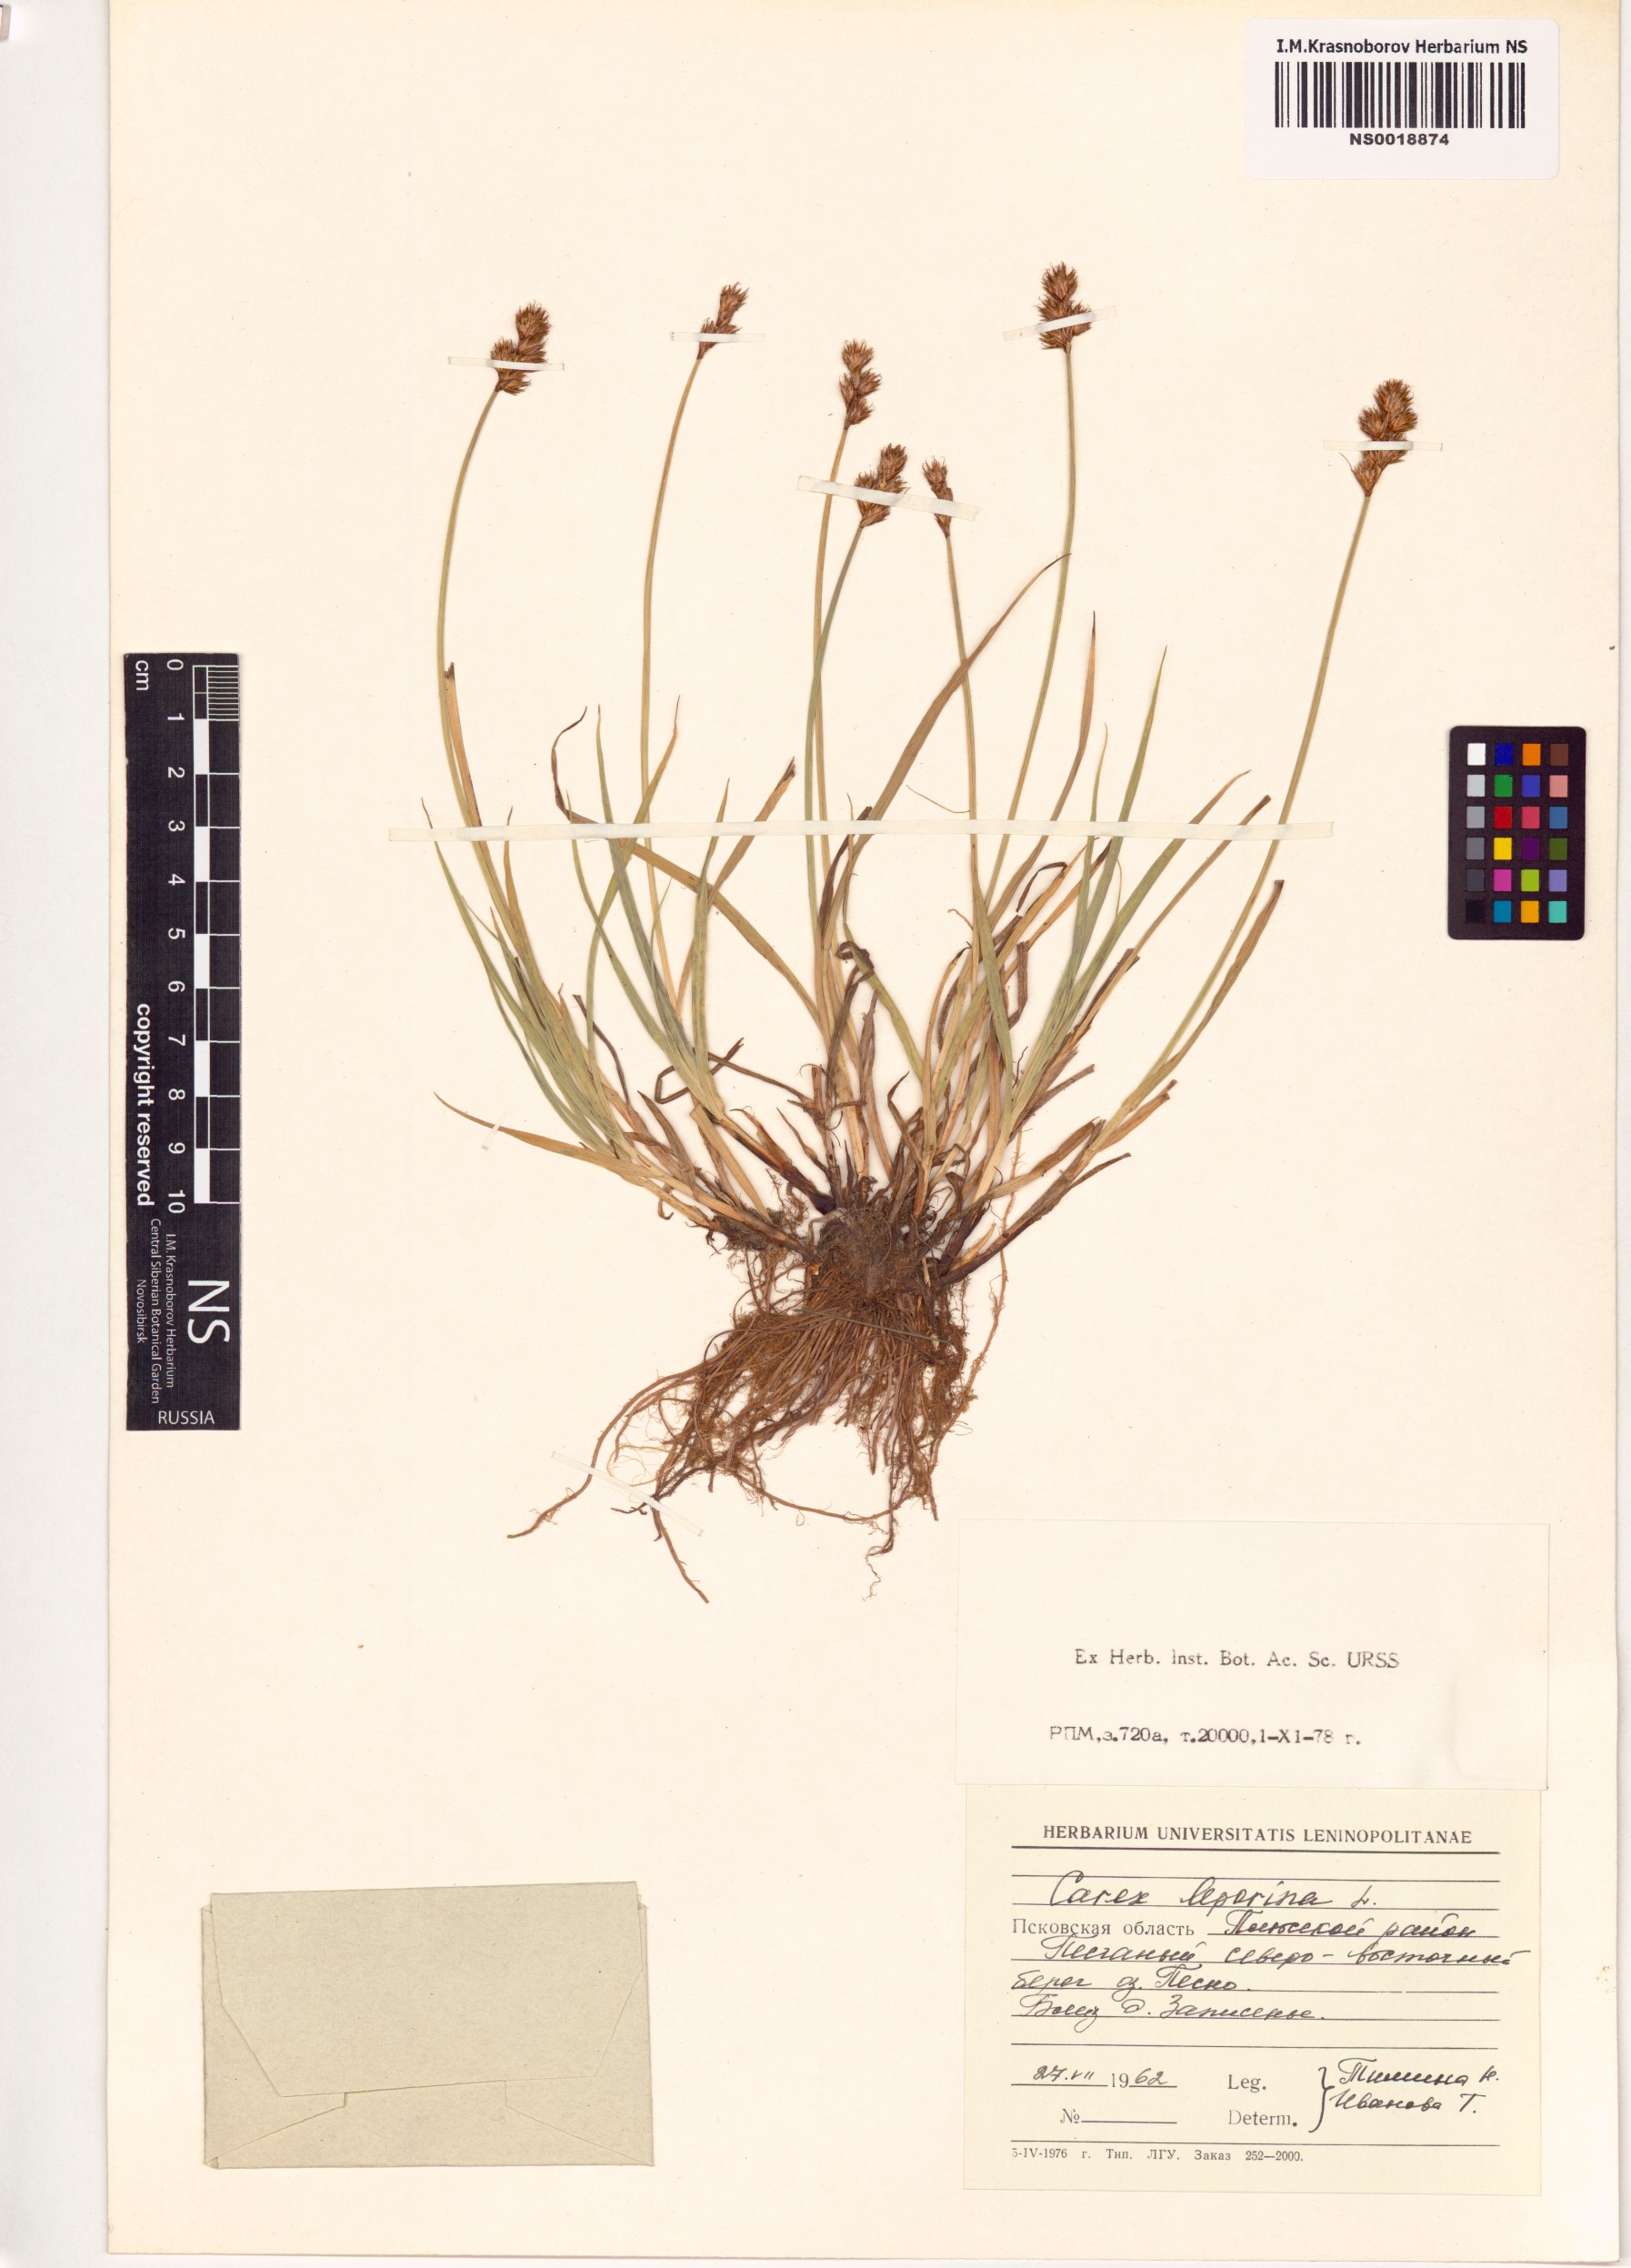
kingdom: Plantae
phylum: Tracheophyta
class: Liliopsida
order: Poales
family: Cyperaceae
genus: Carex
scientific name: Carex leporina
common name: Oval sedge
